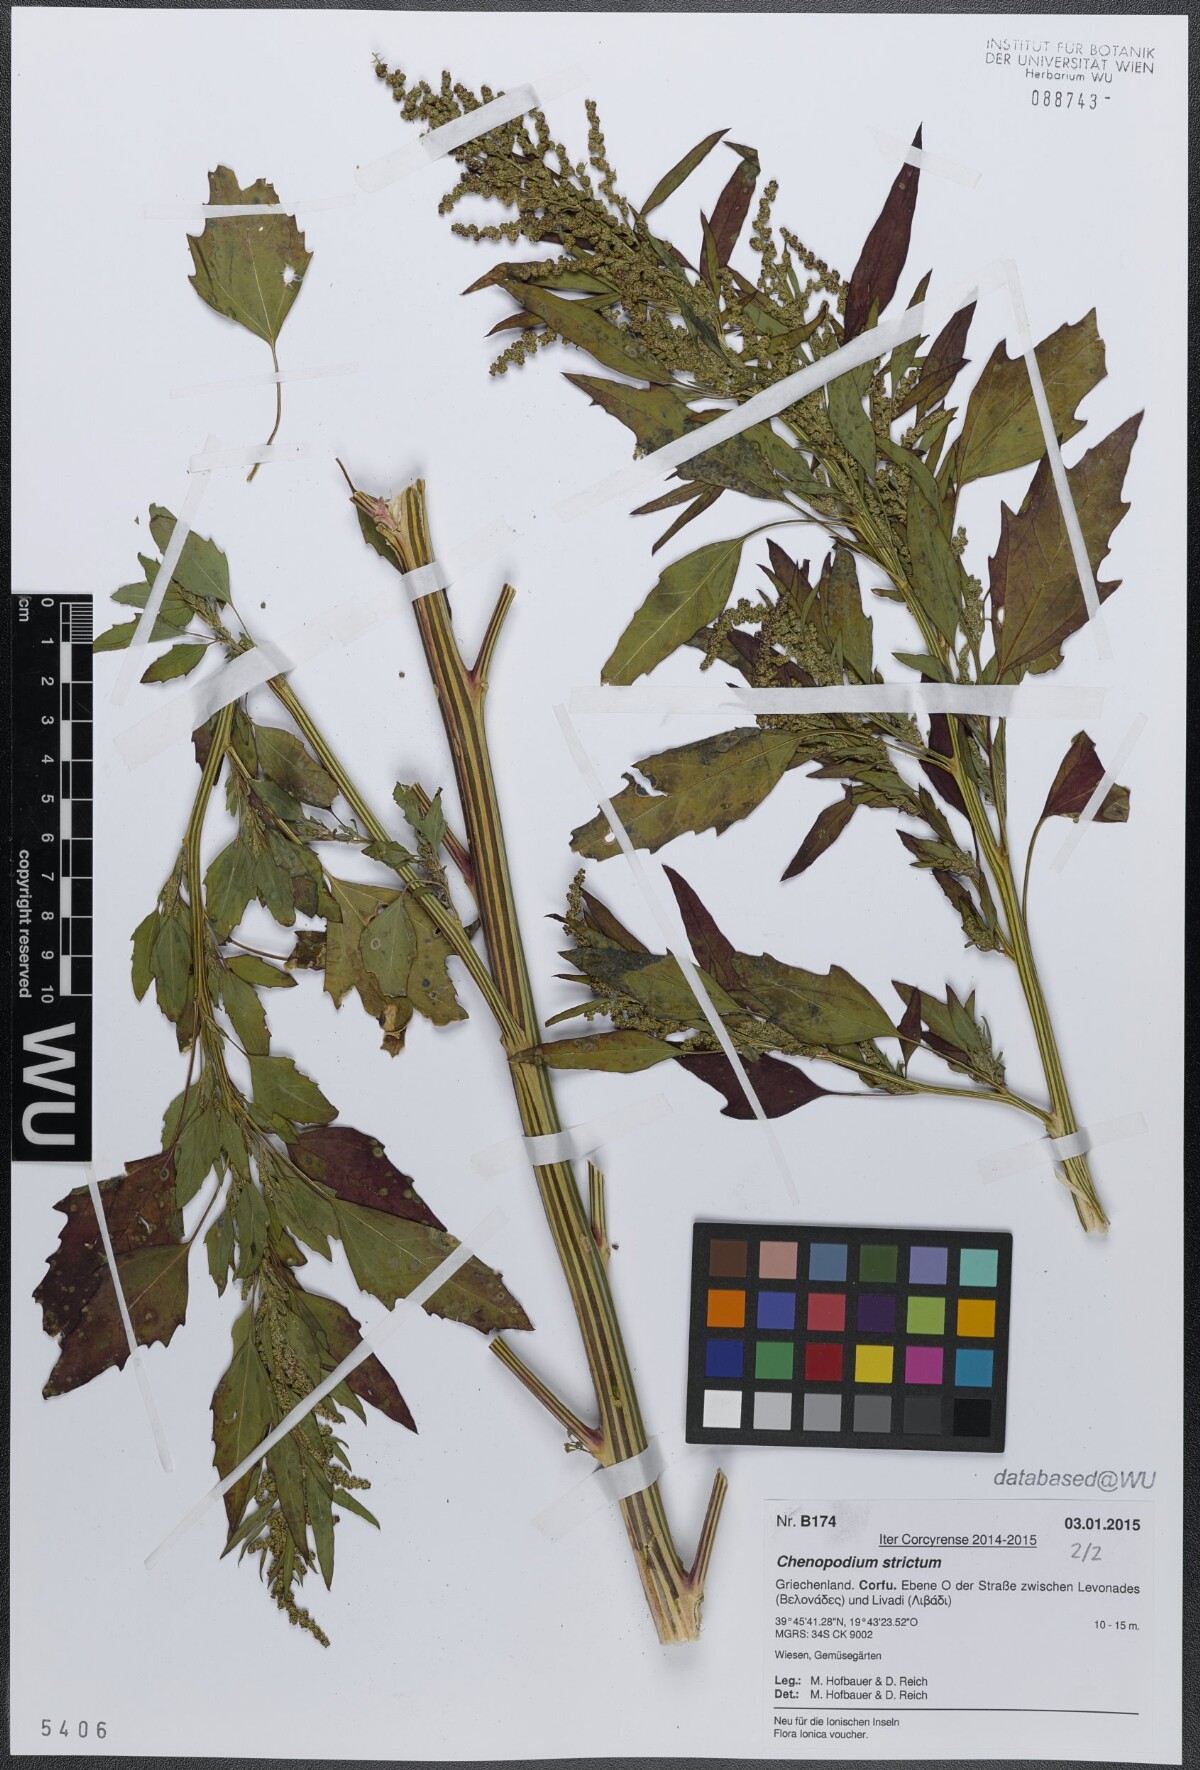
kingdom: Plantae
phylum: Tracheophyta
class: Magnoliopsida
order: Caryophyllales
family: Amaranthaceae
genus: Chenopodium
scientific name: Chenopodium album
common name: Fat-hen
